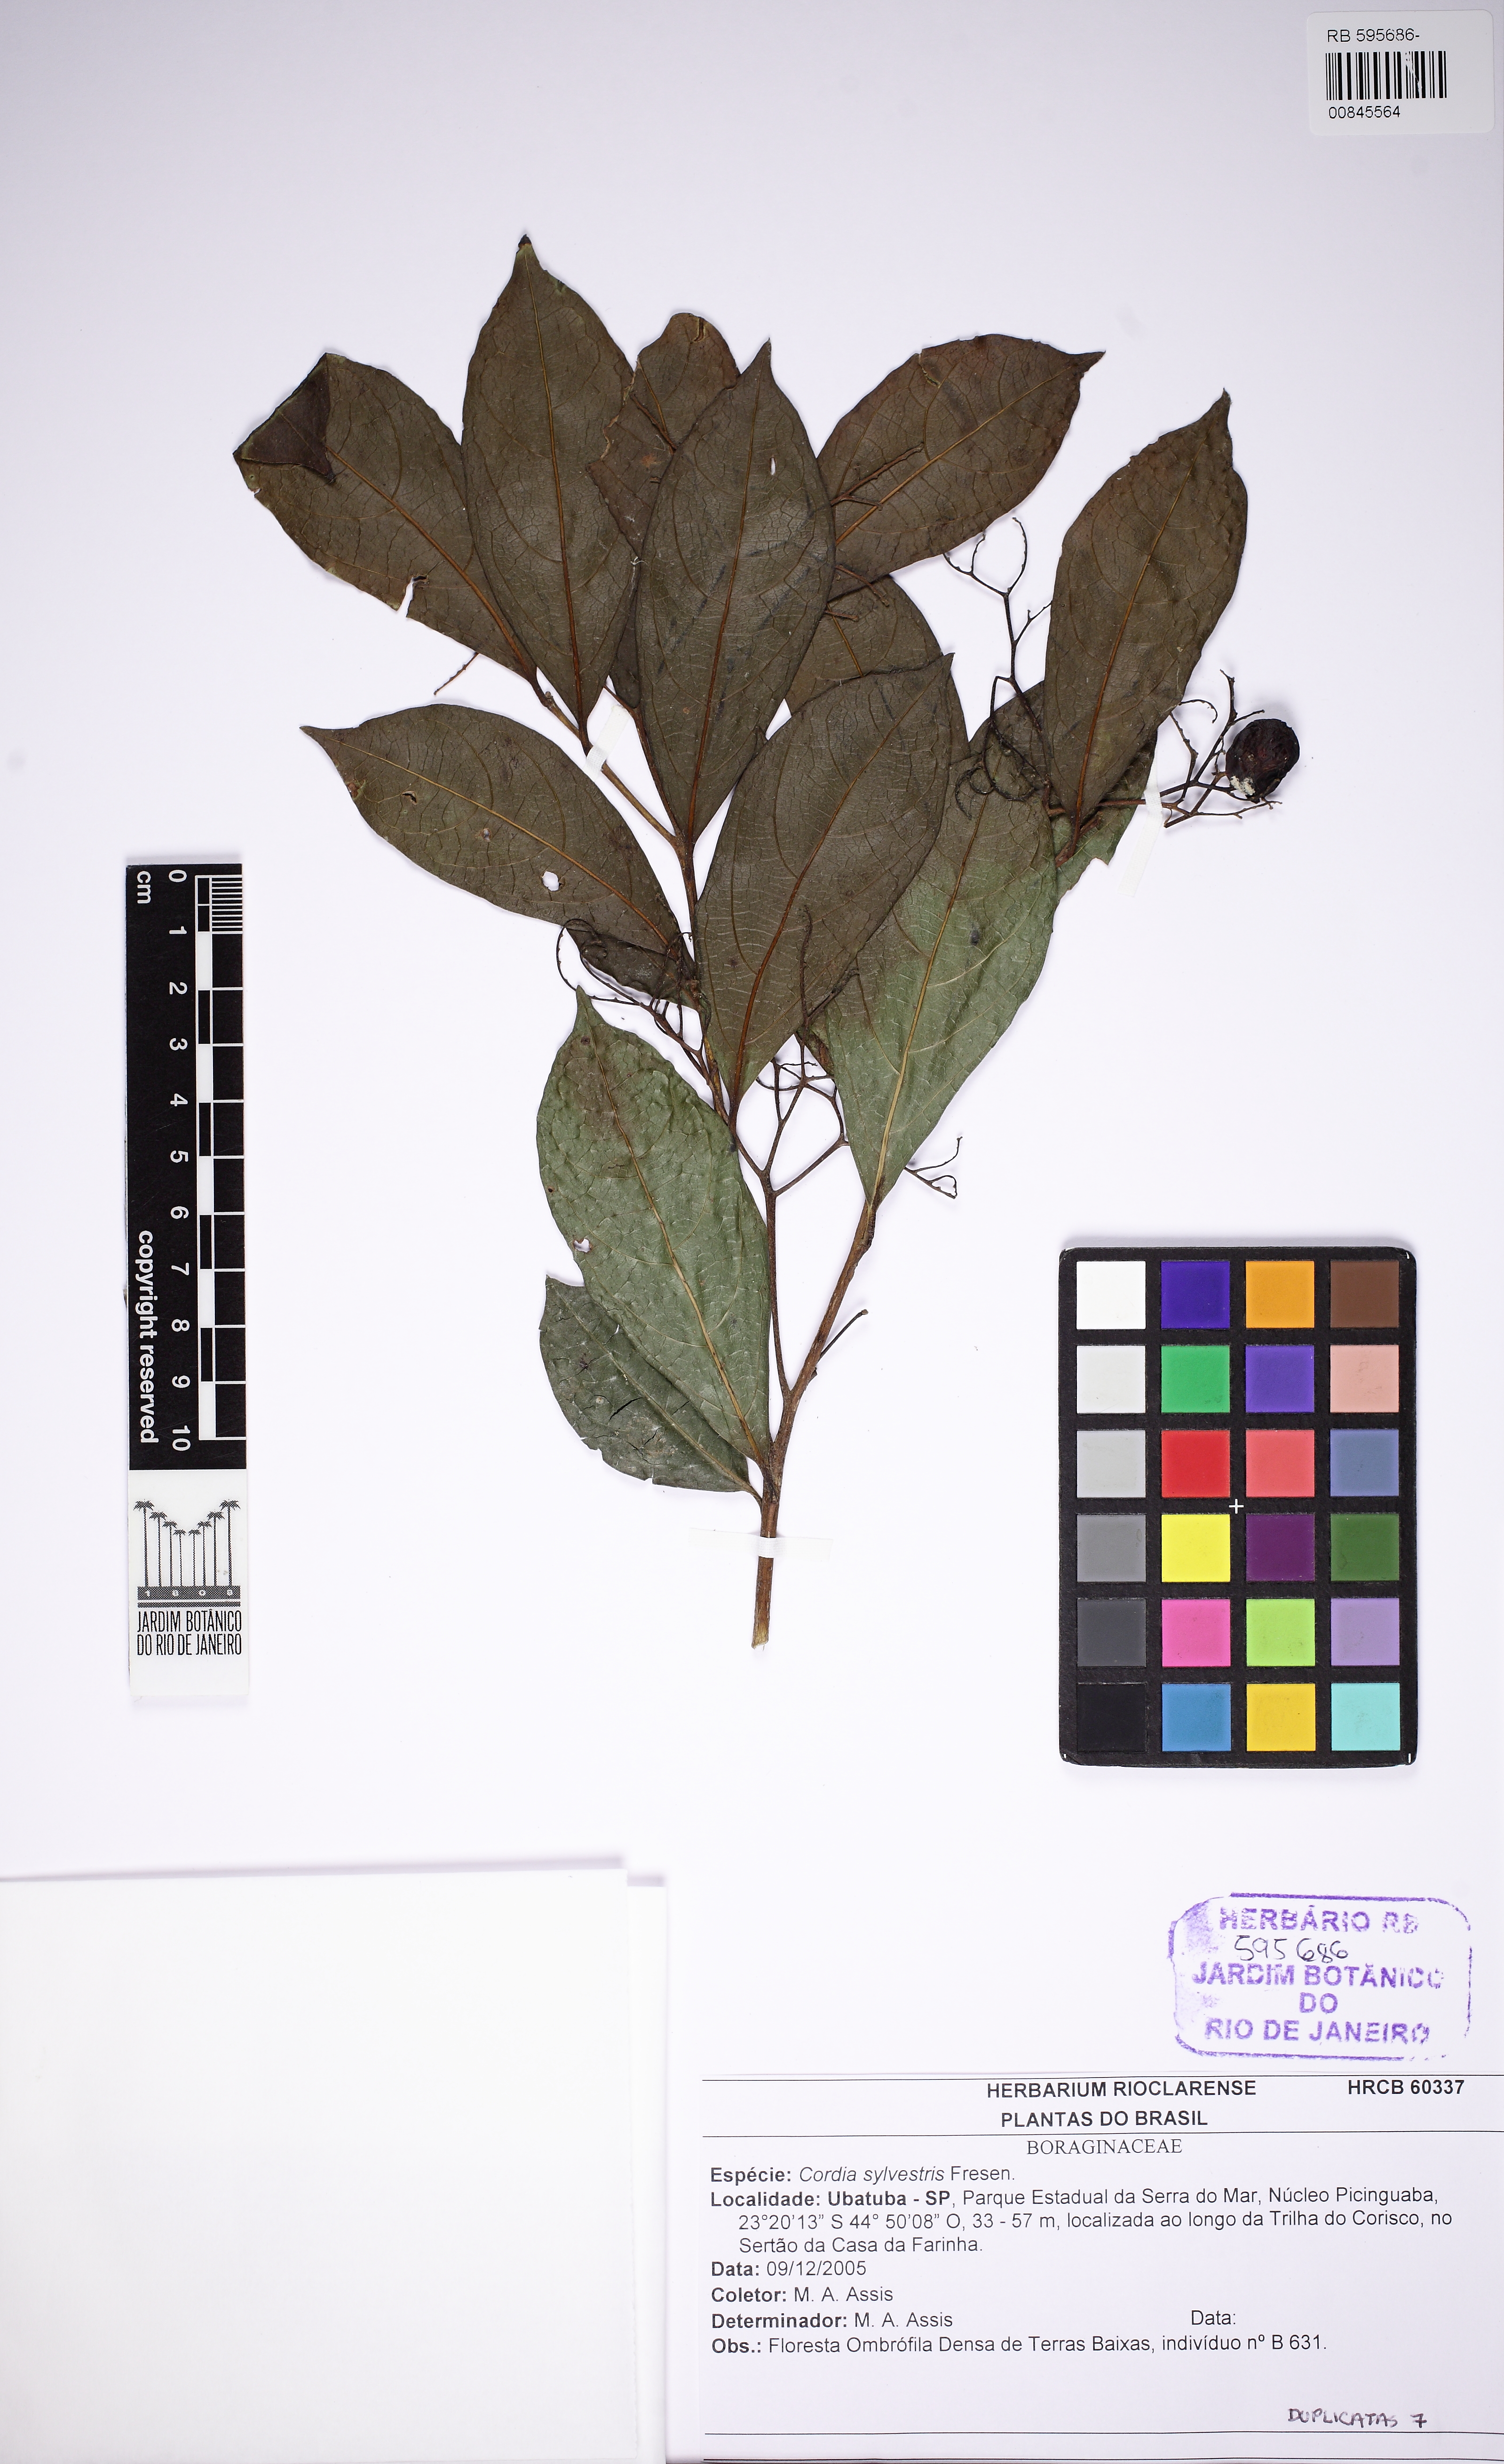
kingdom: Plantae
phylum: Tracheophyta
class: Magnoliopsida
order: Boraginales
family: Cordiaceae
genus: Cordia
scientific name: Cordia silvestris
